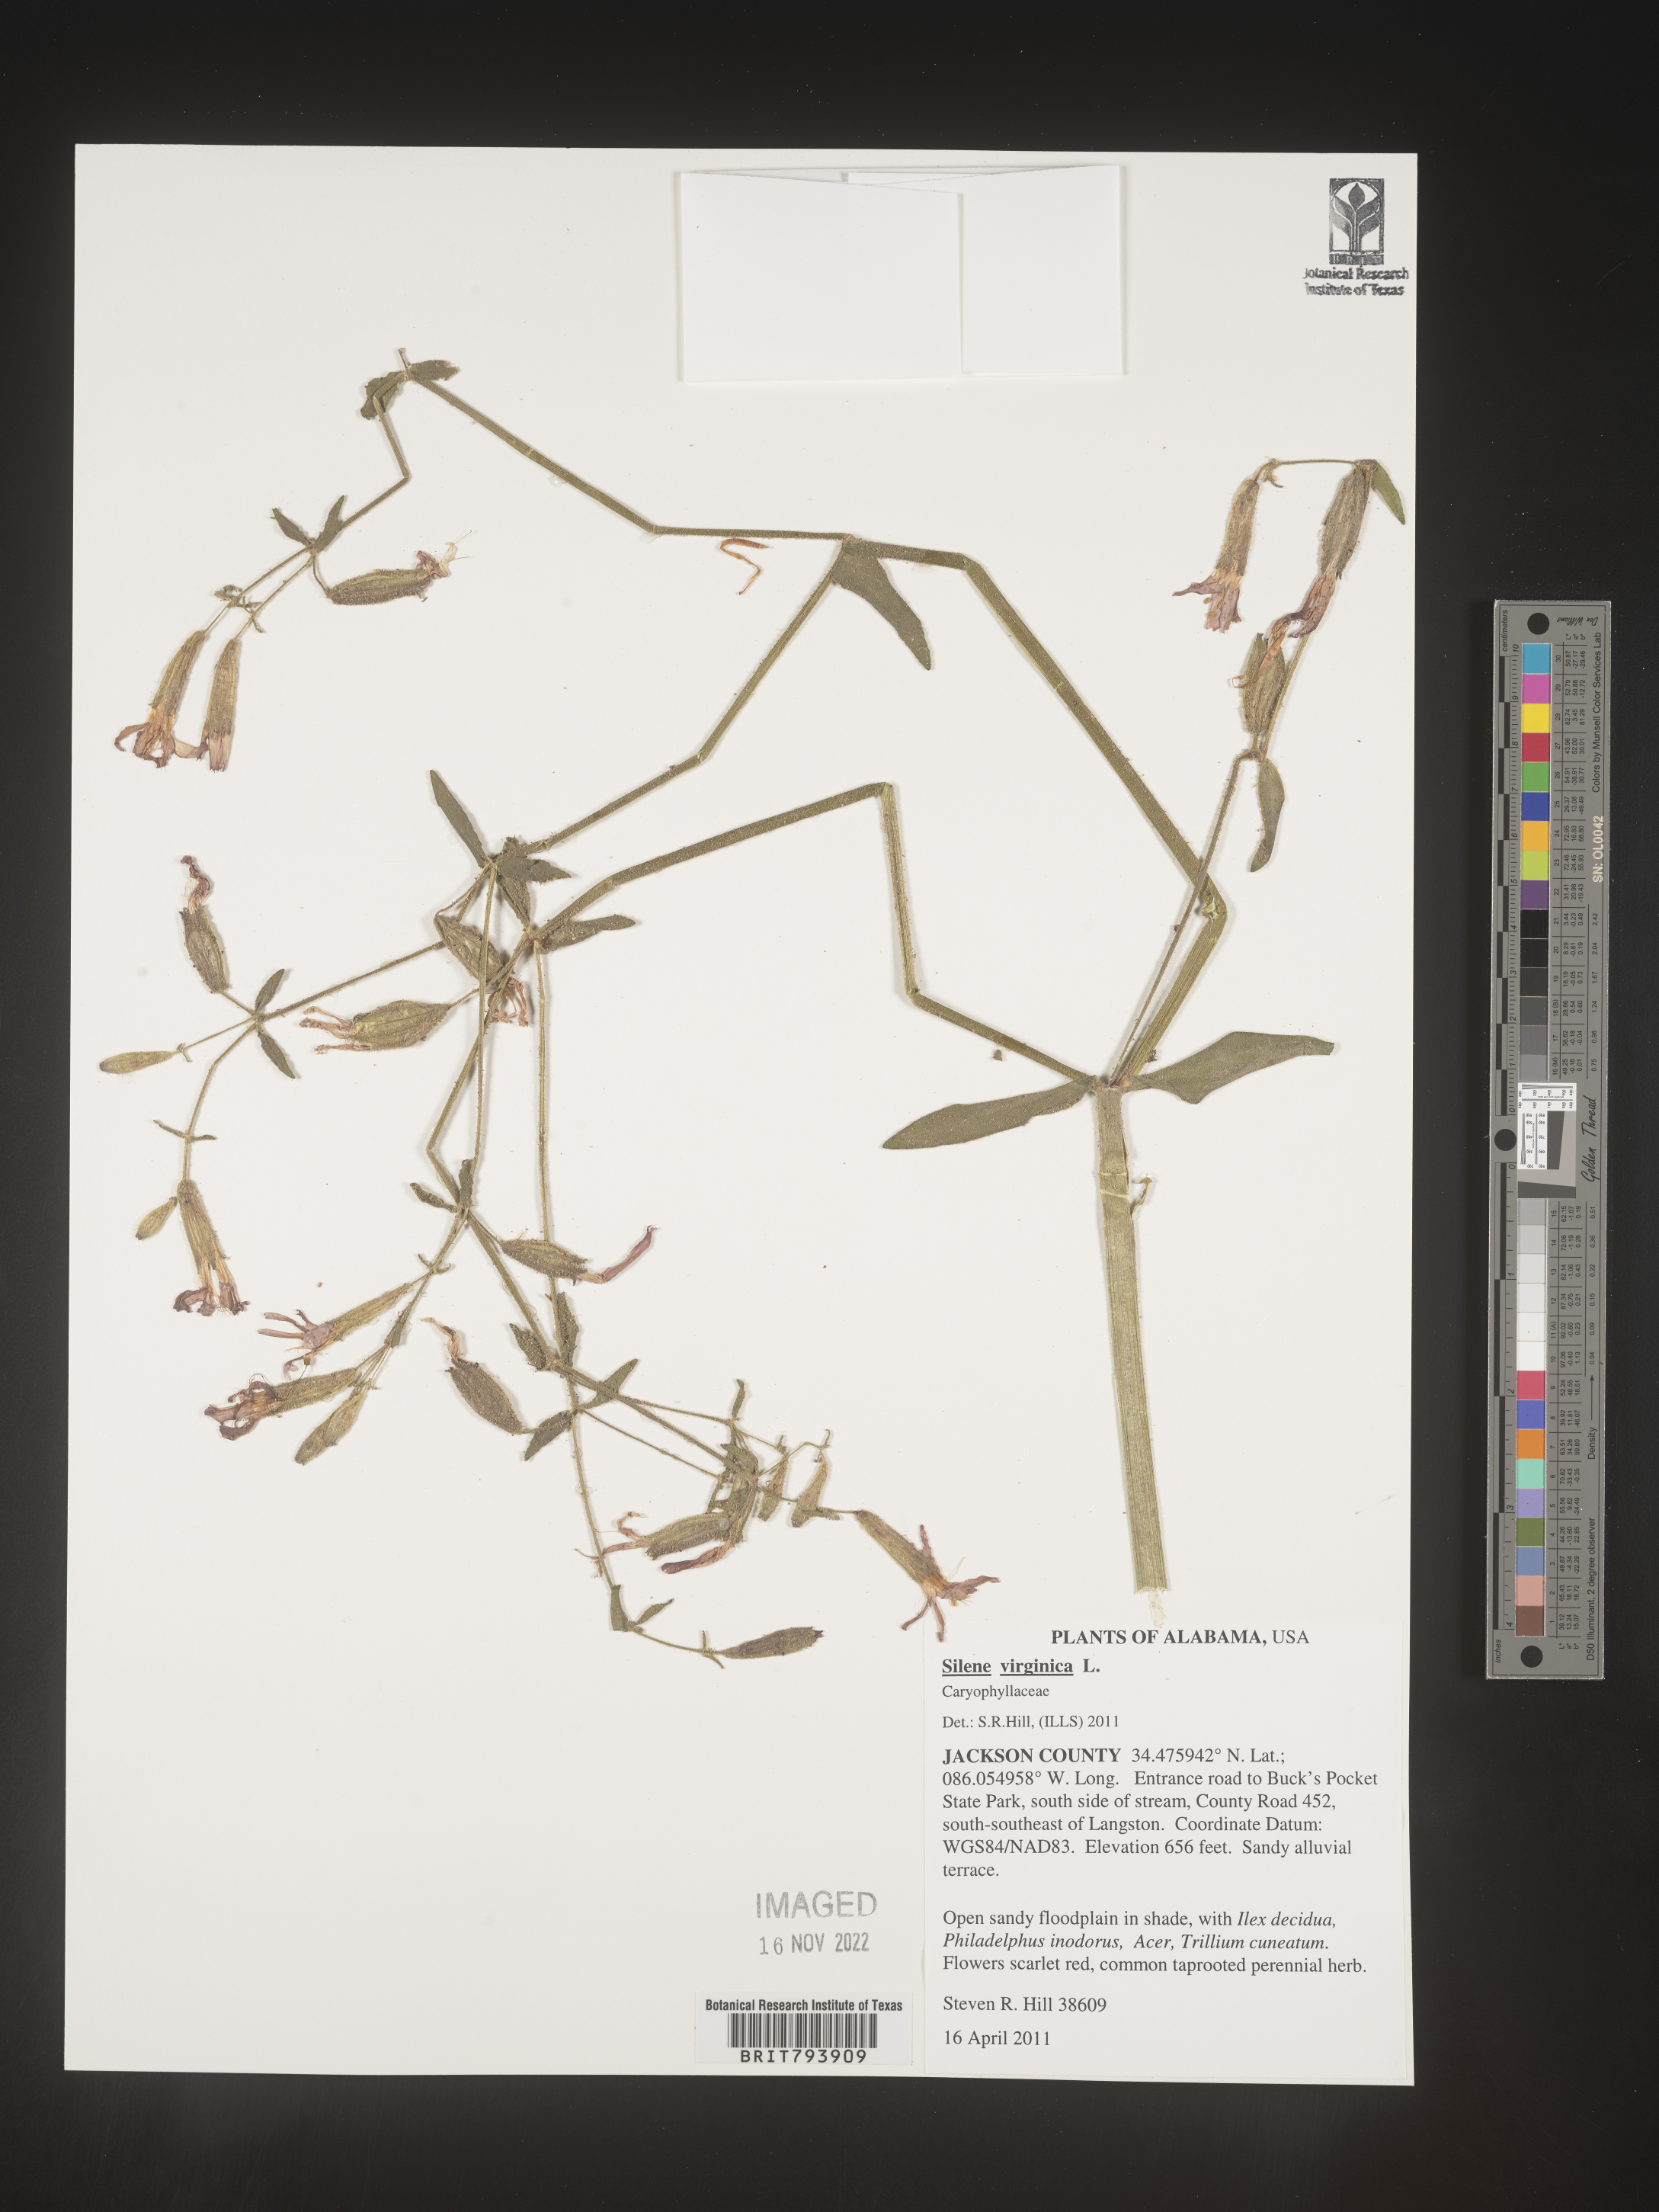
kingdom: Plantae
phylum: Tracheophyta
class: Magnoliopsida
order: Caryophyllales
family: Caryophyllaceae
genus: Silene
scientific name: Silene virginica
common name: Fire-pink
